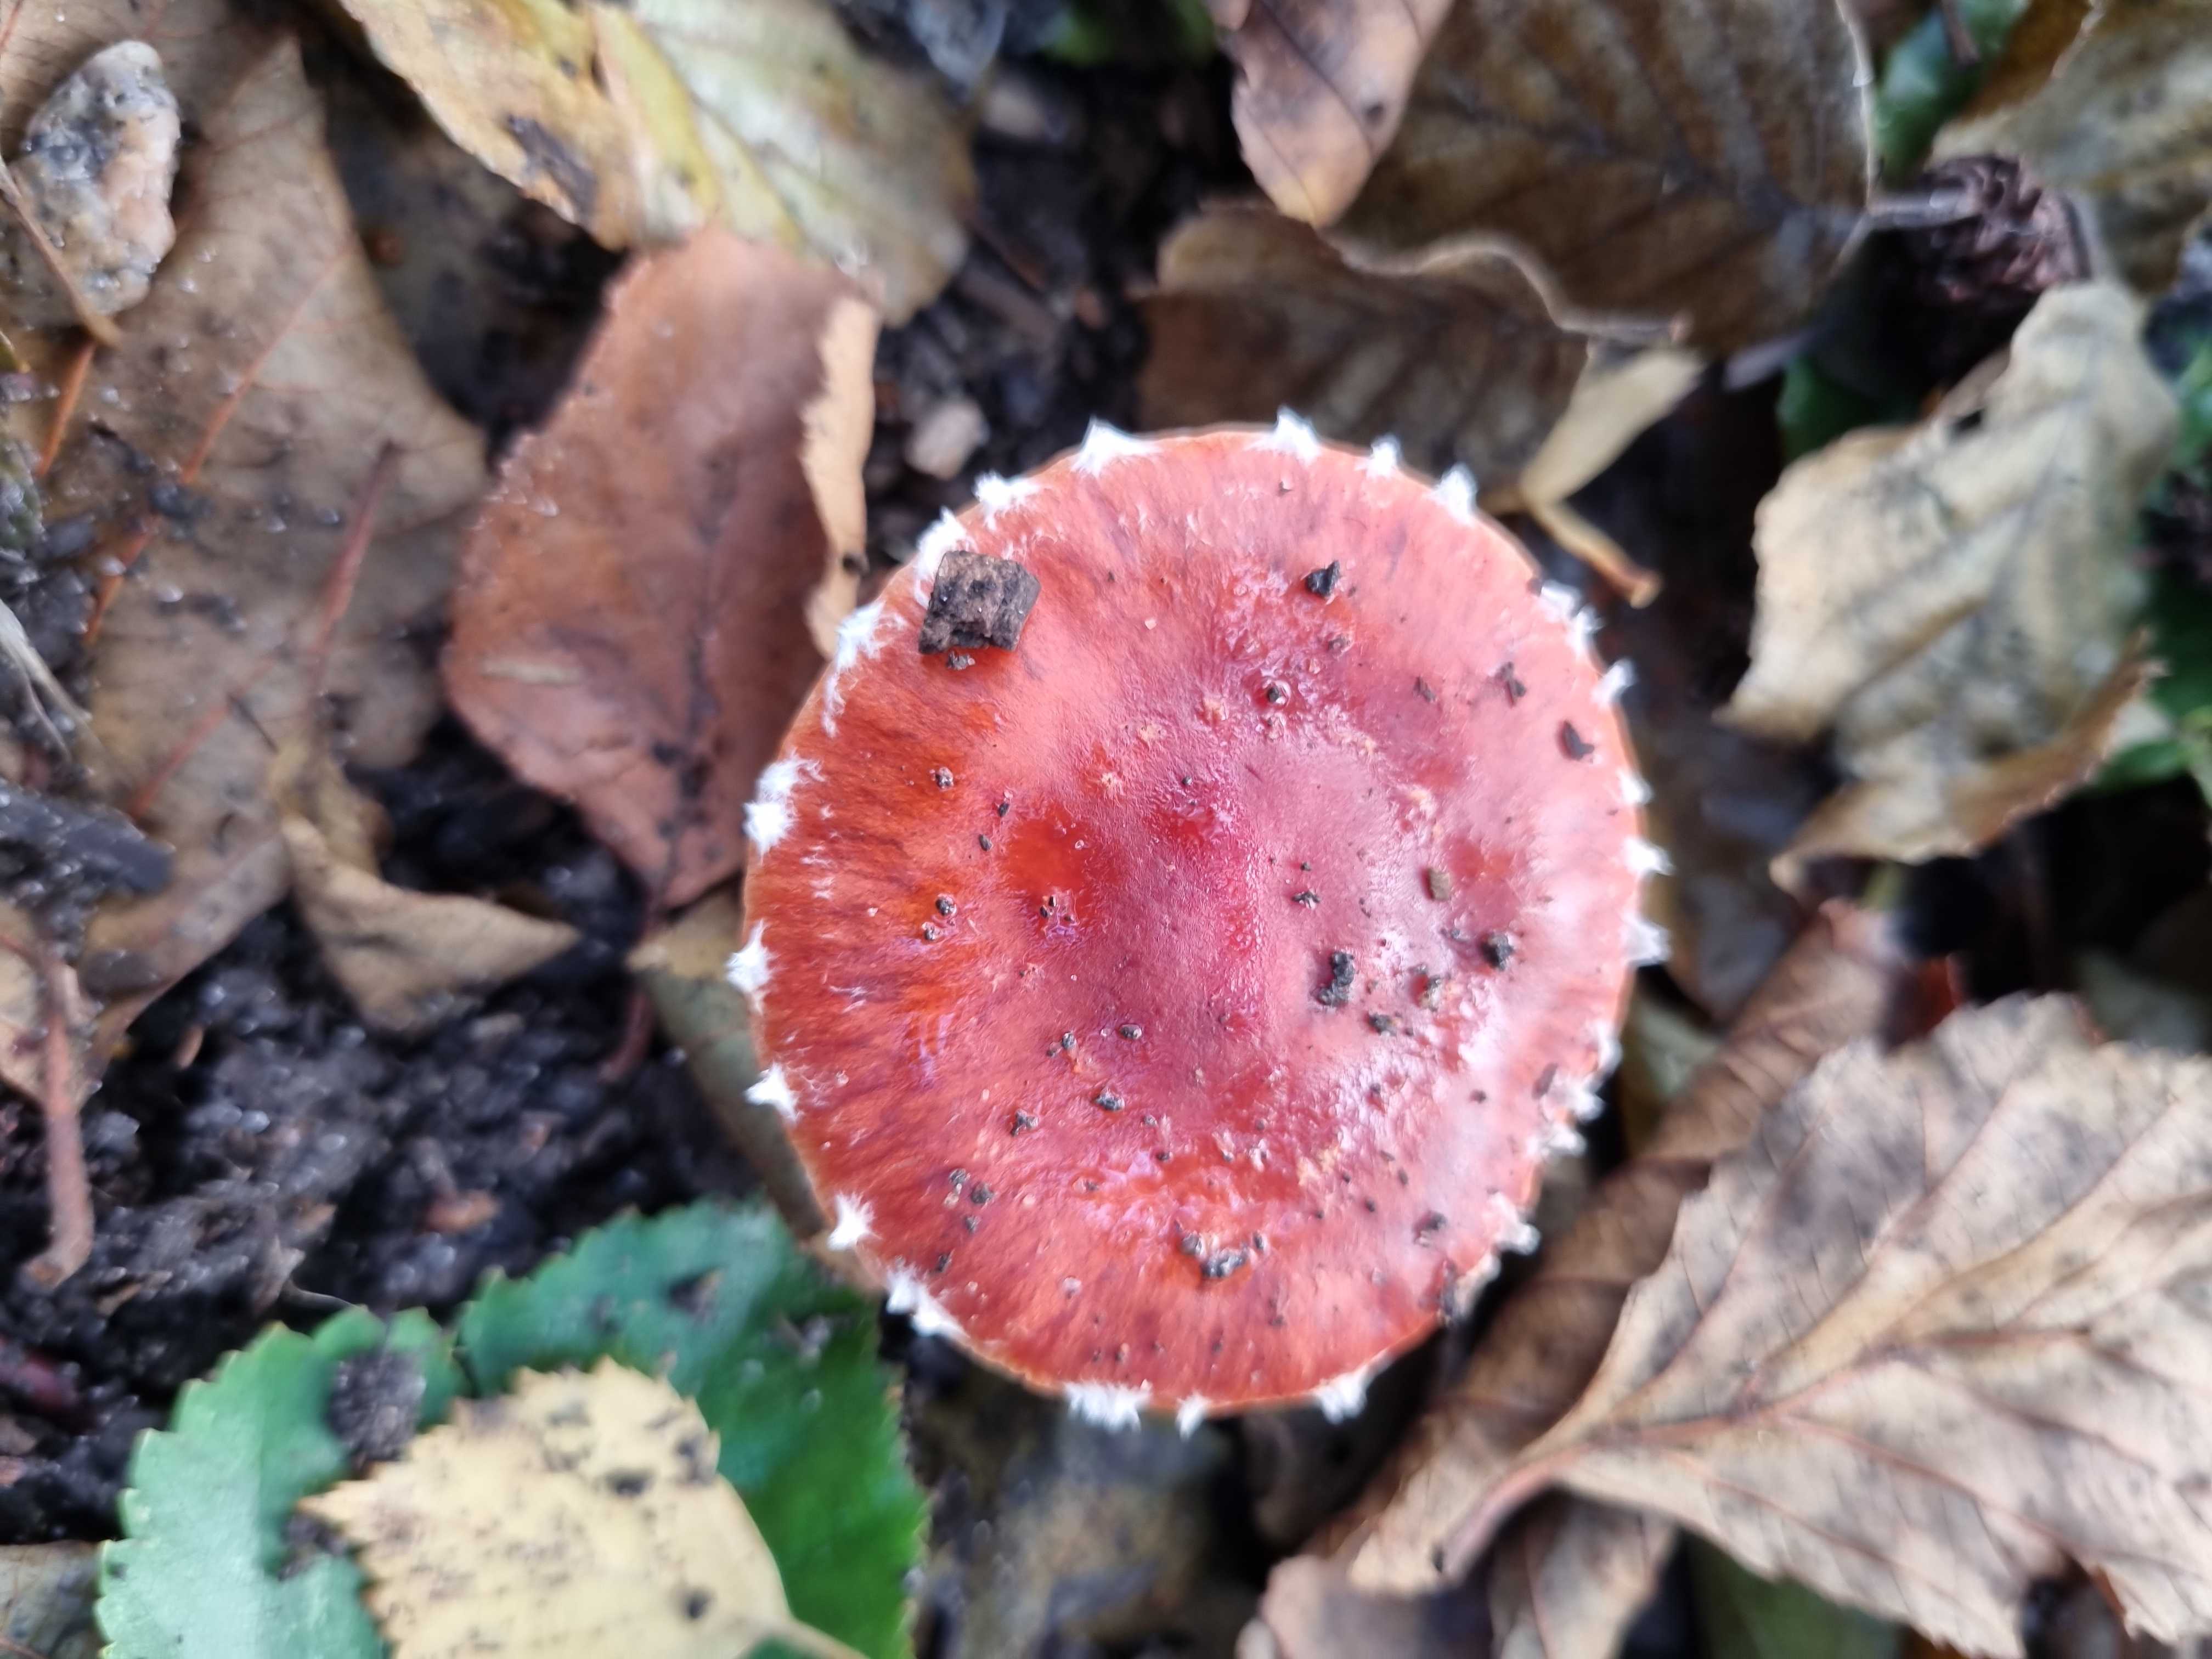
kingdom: Fungi
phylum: Basidiomycota
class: Agaricomycetes
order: Agaricales
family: Strophariaceae
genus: Leratiomyces
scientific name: Leratiomyces ceres
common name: orange bredblad
